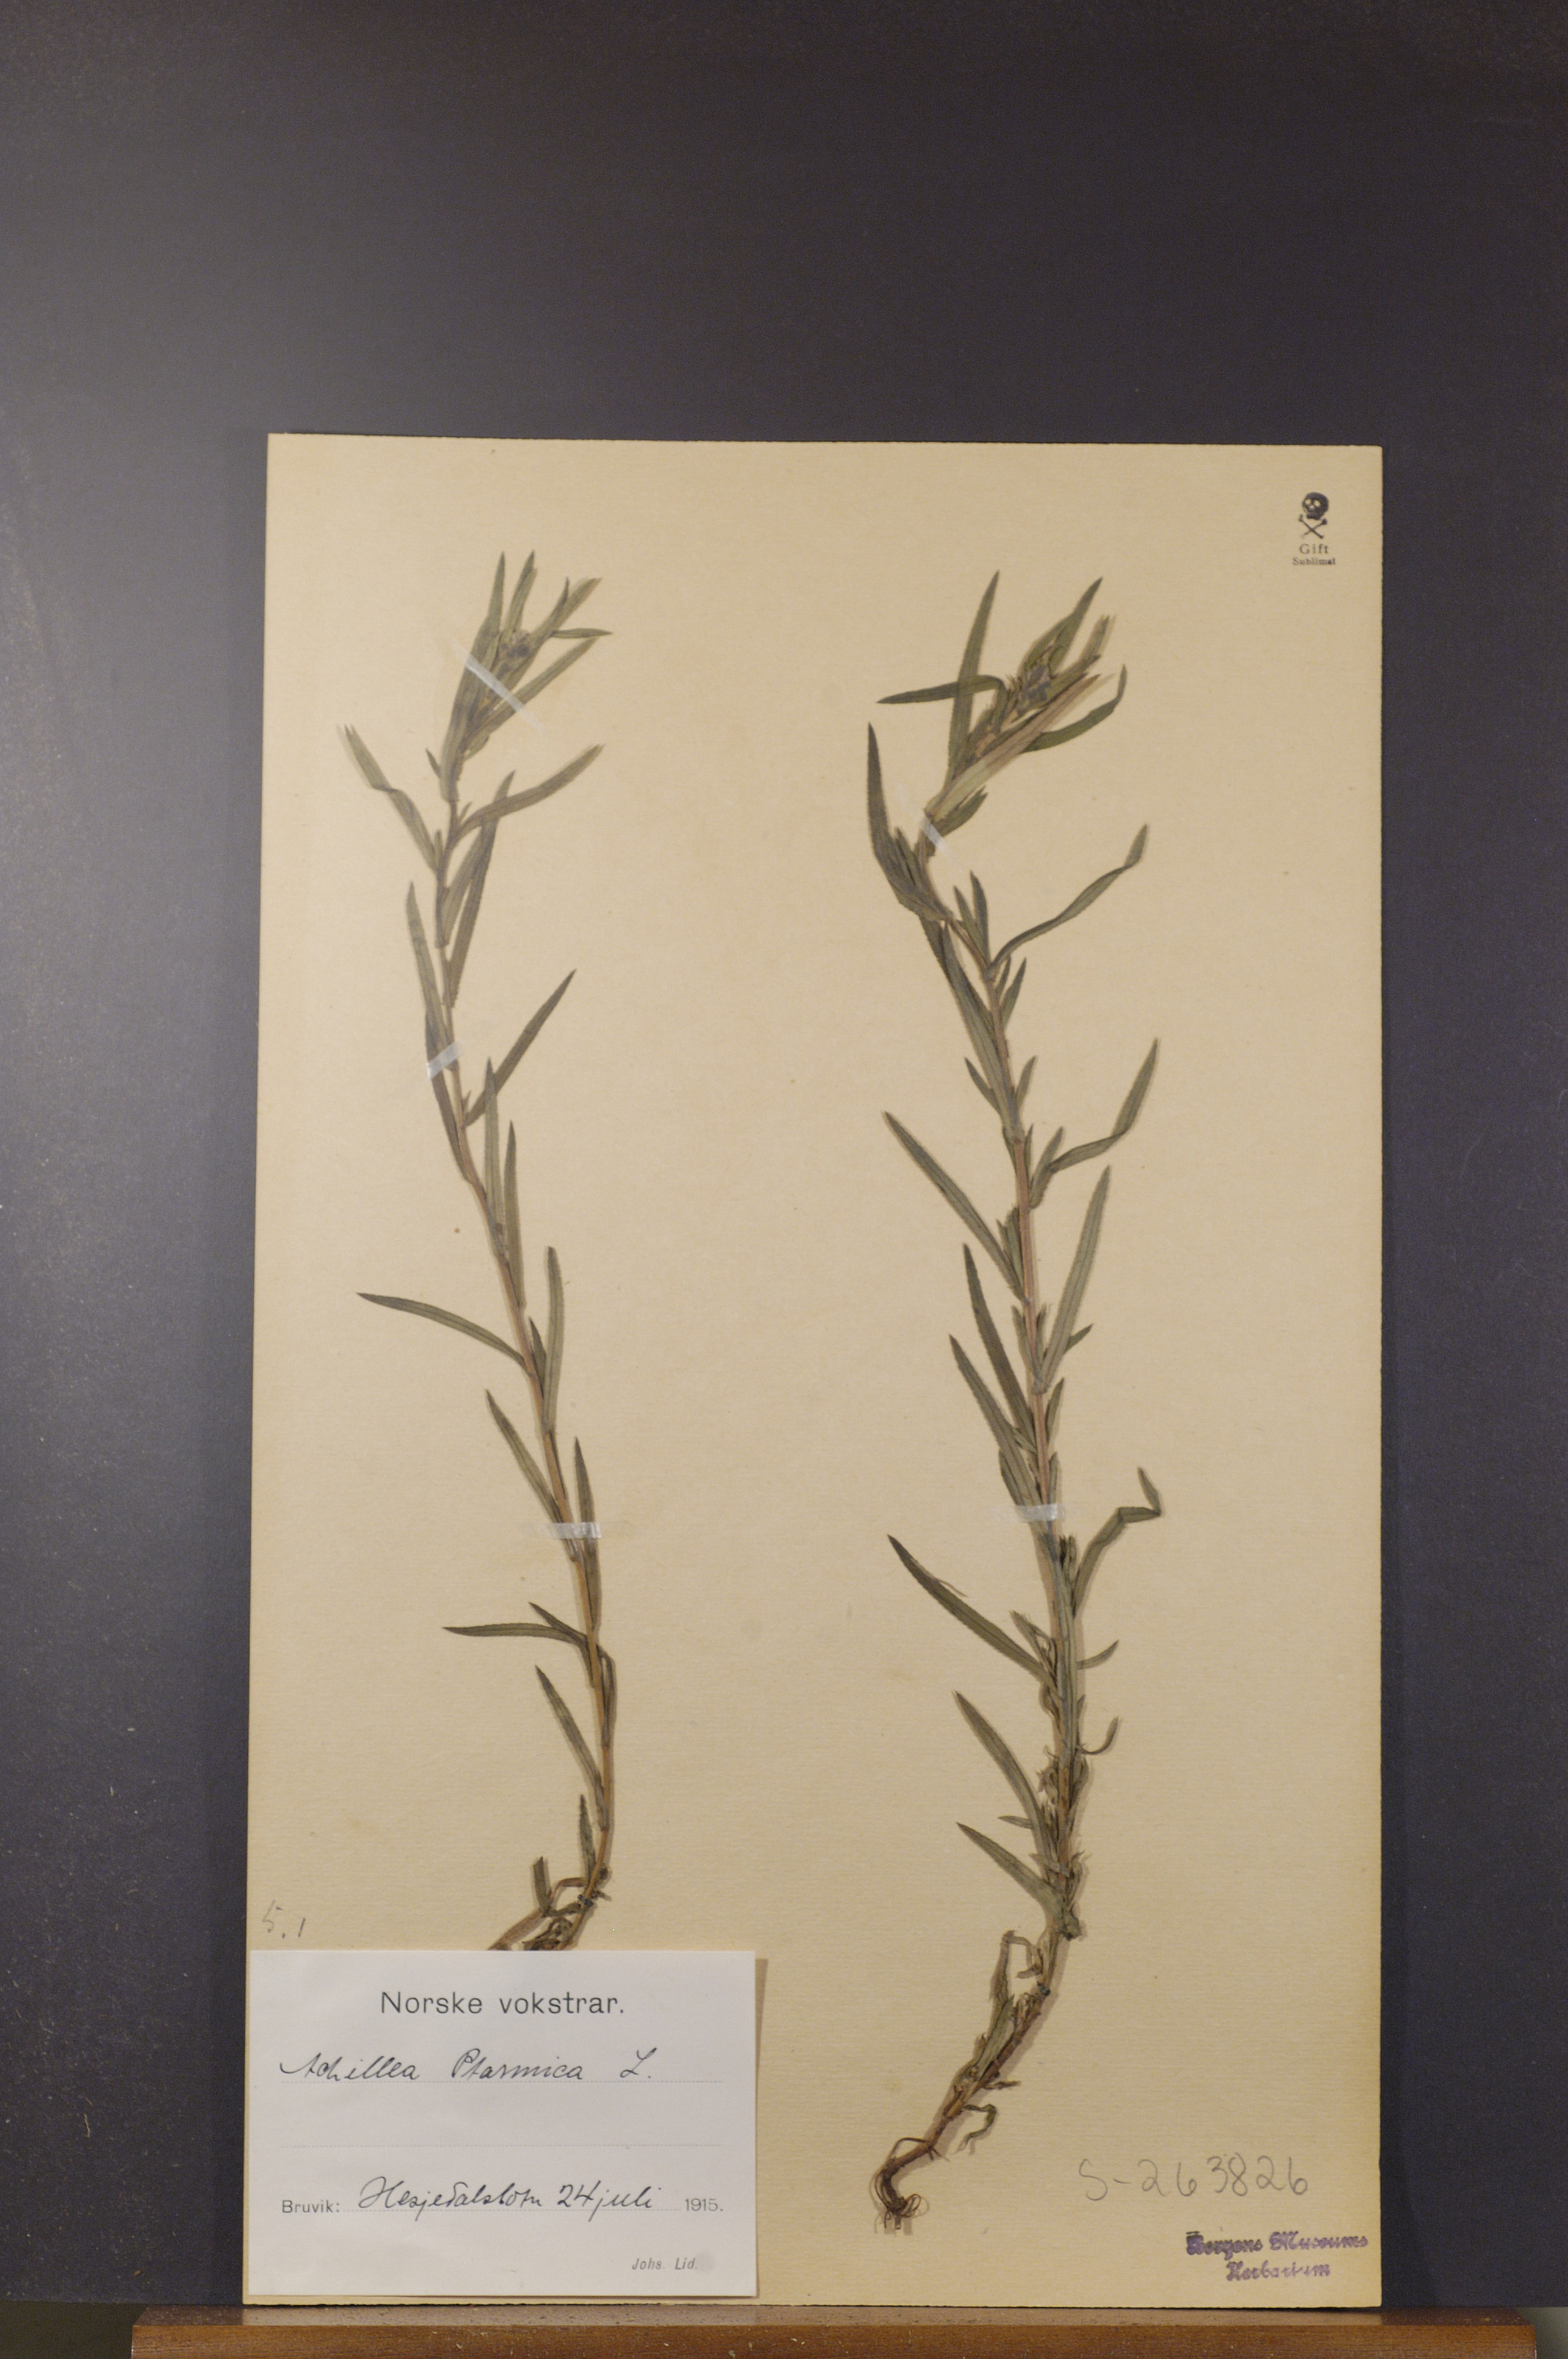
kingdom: Plantae
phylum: Tracheophyta
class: Magnoliopsida
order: Asterales
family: Asteraceae
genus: Achillea
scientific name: Achillea ptarmica
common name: Sneezeweed
